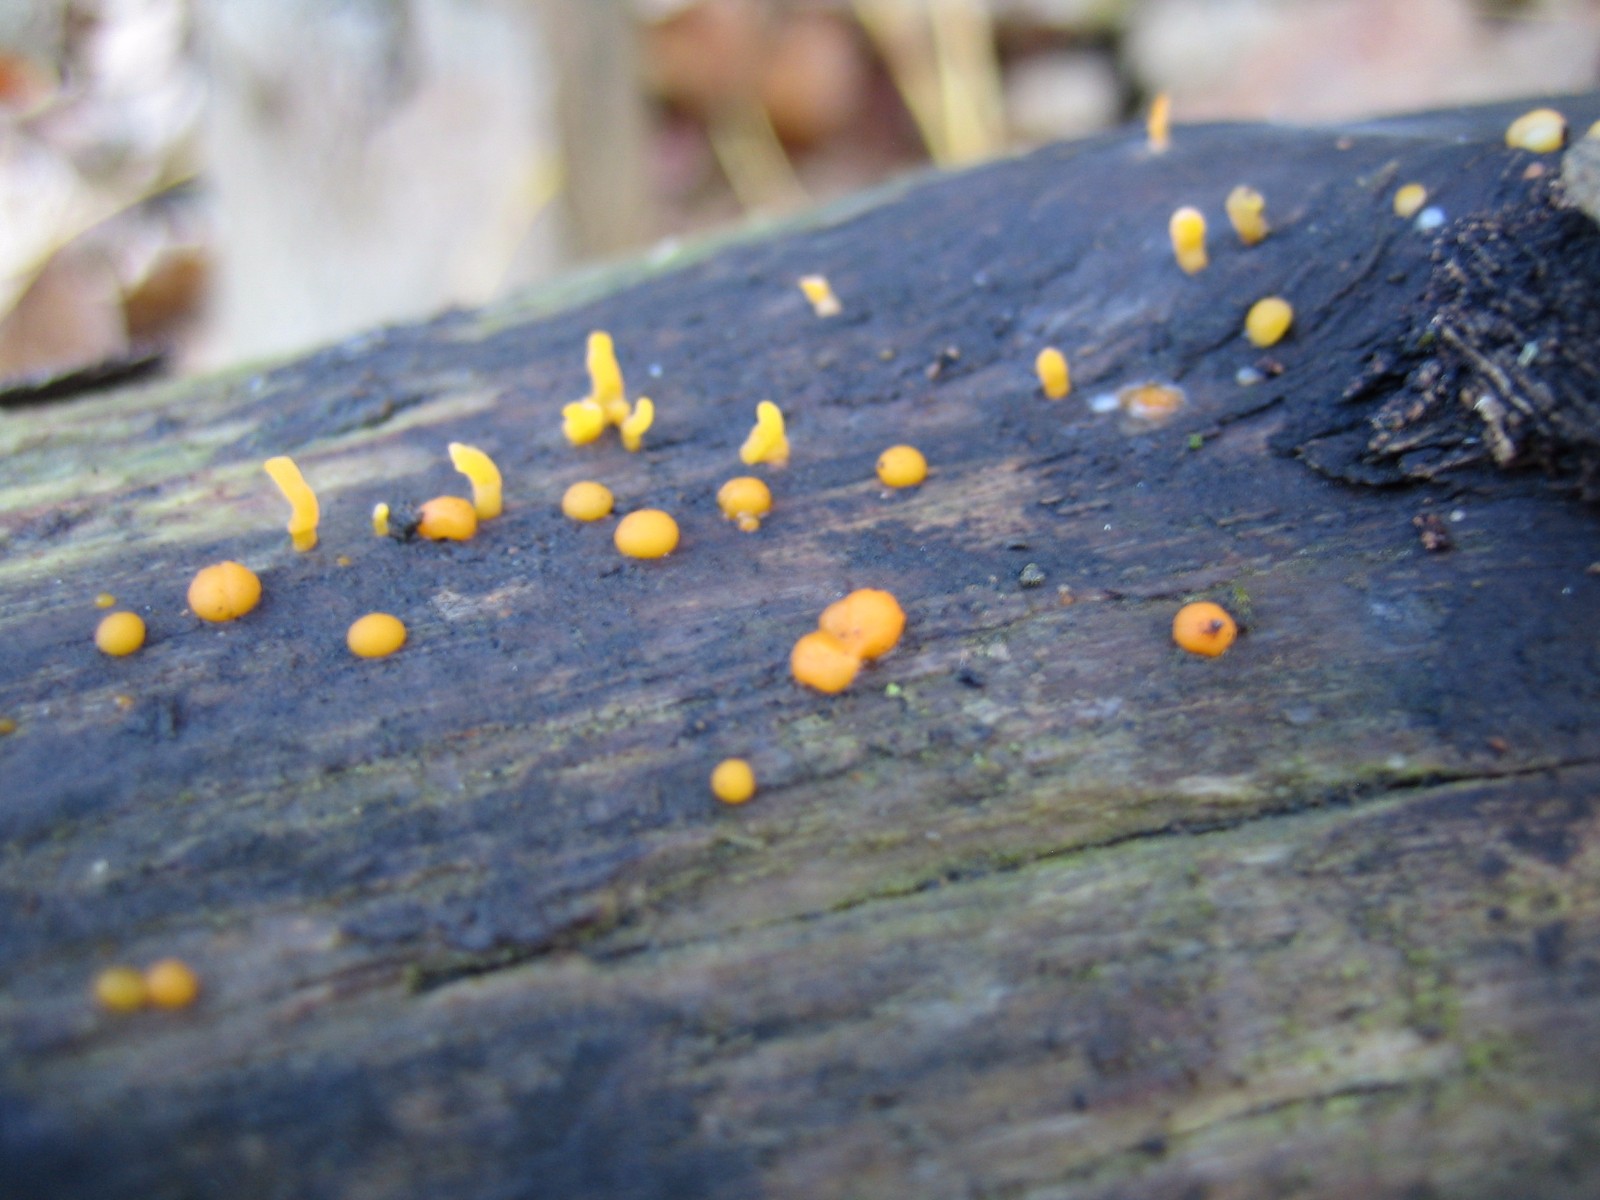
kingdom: Fungi
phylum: Basidiomycota
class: Dacrymycetes
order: Dacrymycetales
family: Dacrymycetaceae
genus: Dacrymyces
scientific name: Dacrymyces stillatus
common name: almindelig tåresvamp
